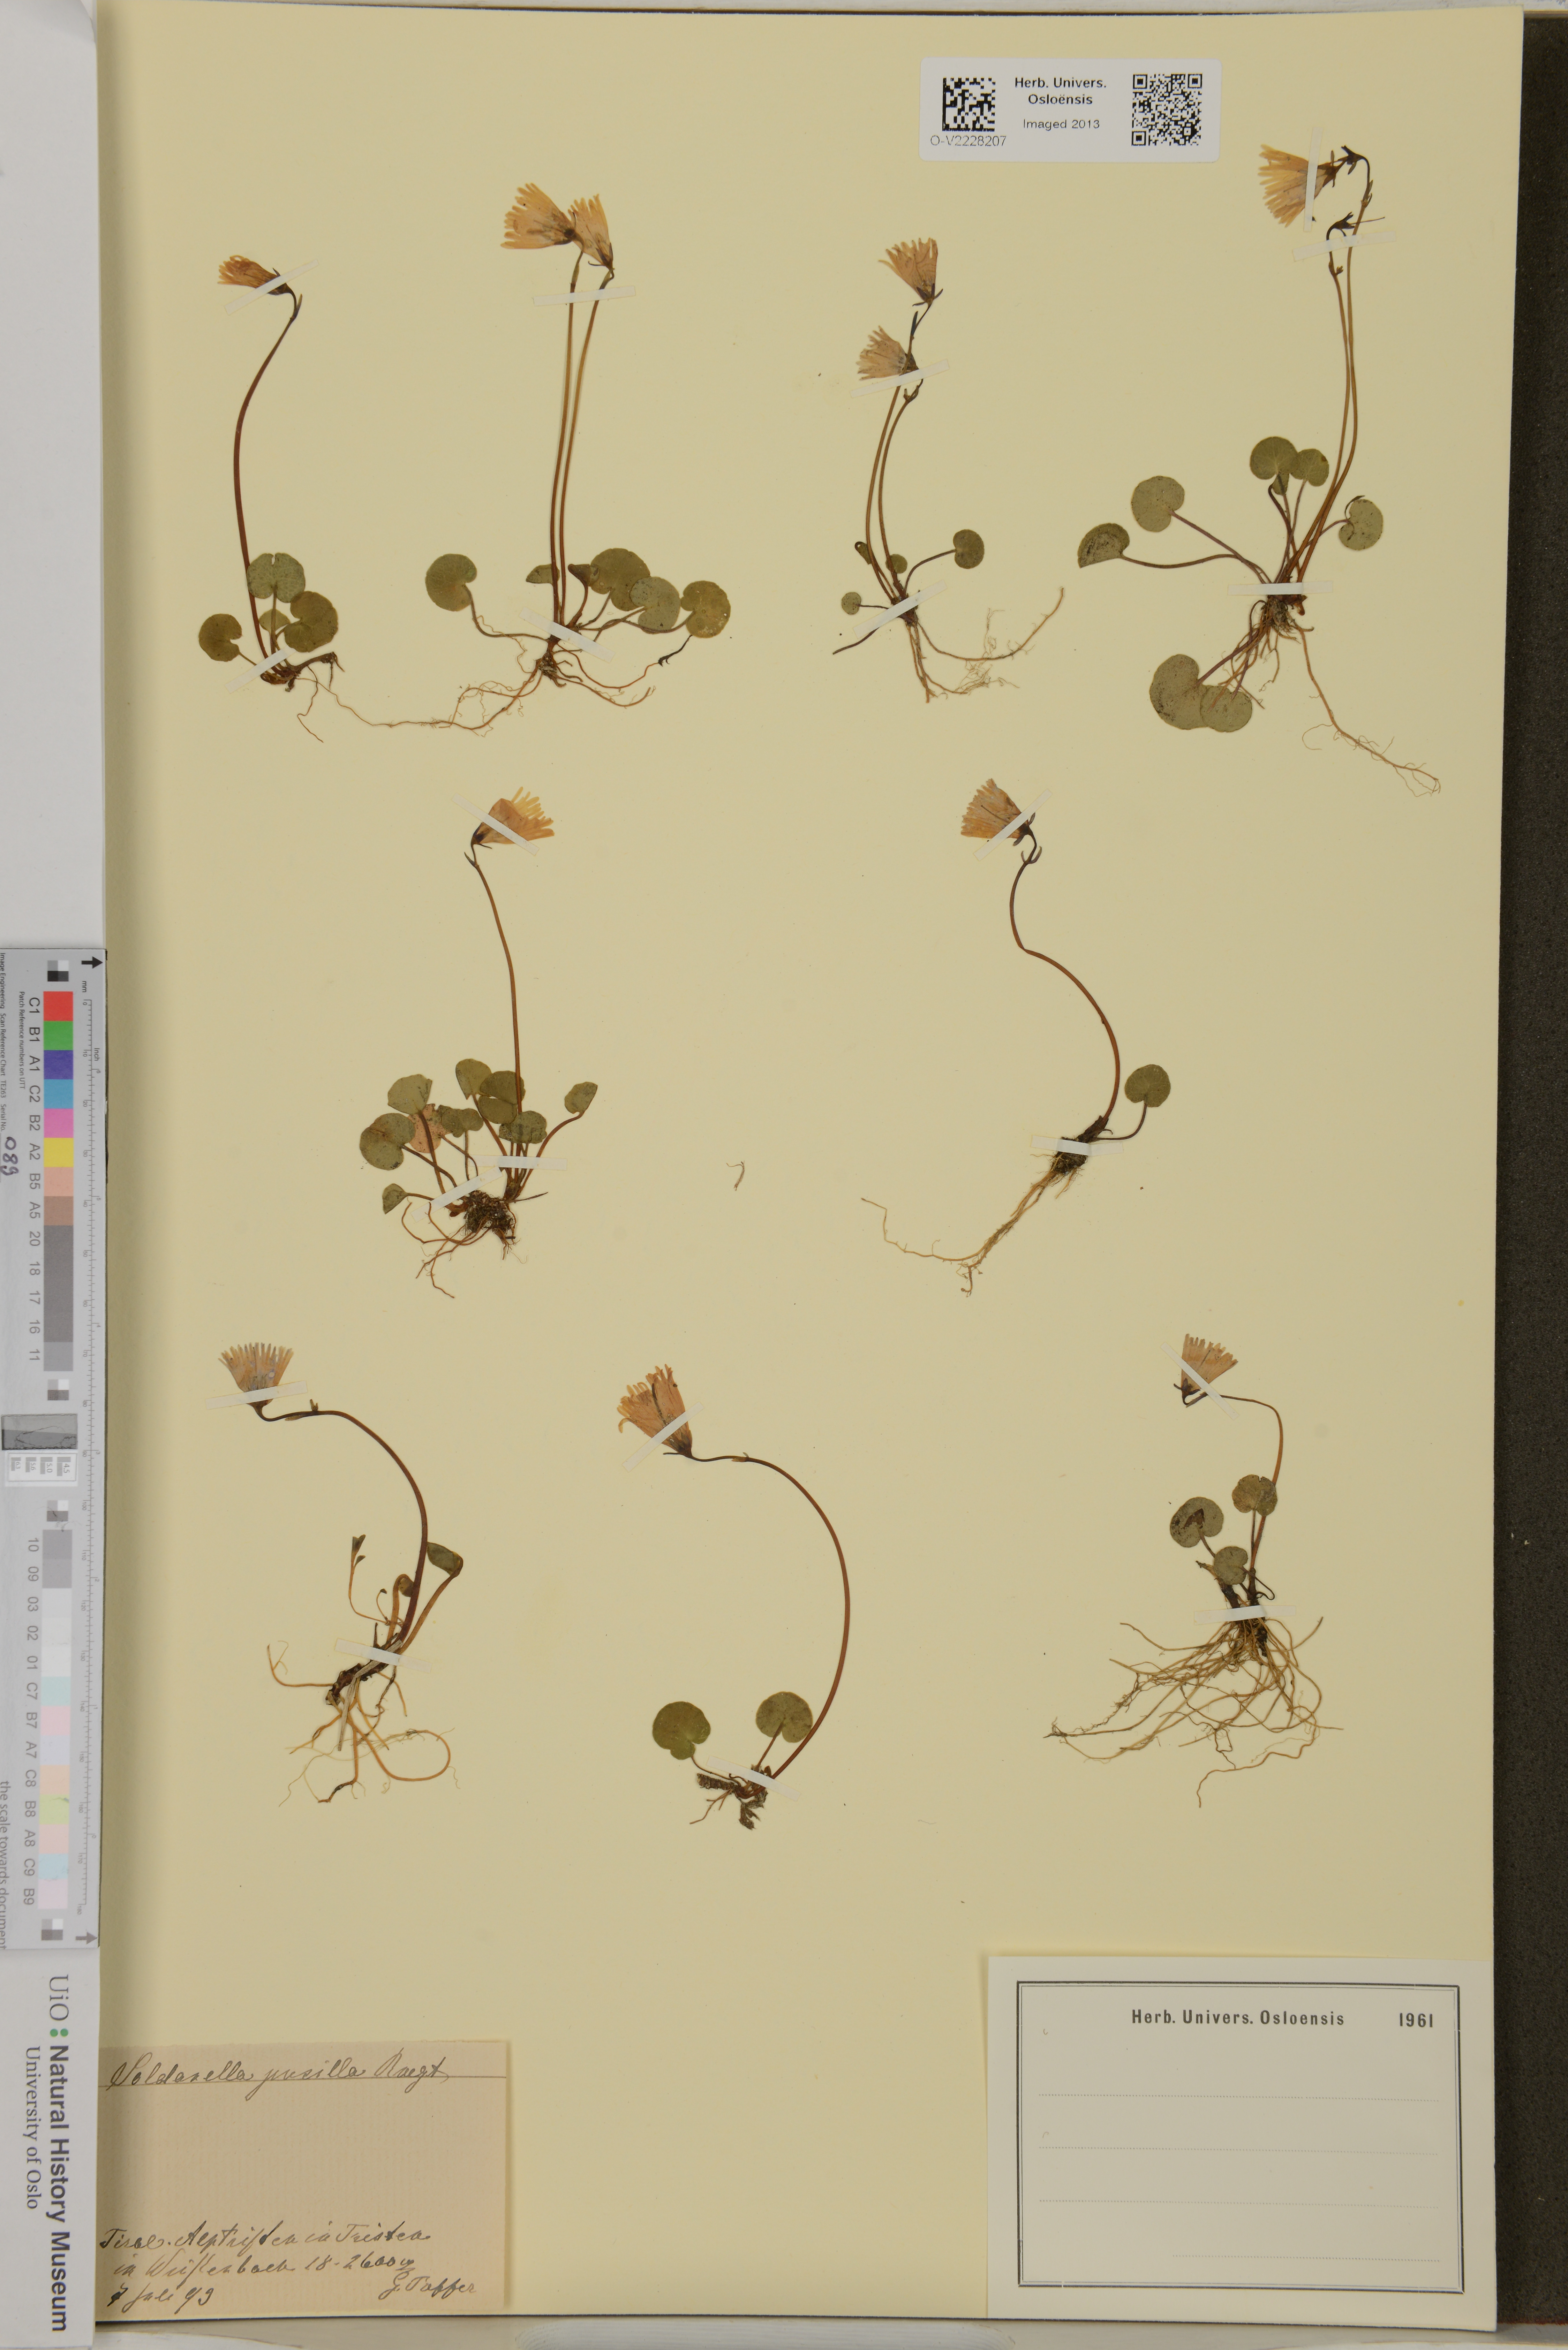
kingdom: Plantae
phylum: Tracheophyta
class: Magnoliopsida
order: Ericales
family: Primulaceae
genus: Soldanella
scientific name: Soldanella pusilla
